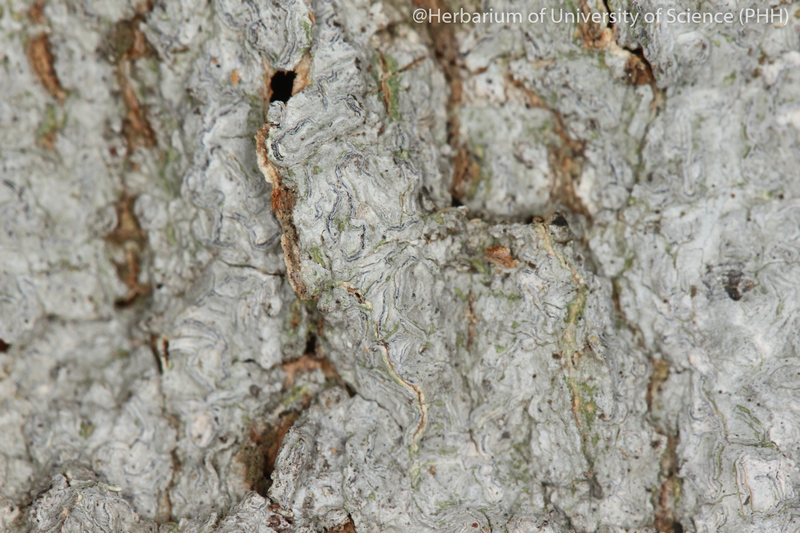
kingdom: Fungi
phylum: Ascomycota
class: Lecanoromycetes
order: Ostropales
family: Graphidaceae
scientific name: Graphidaceae
